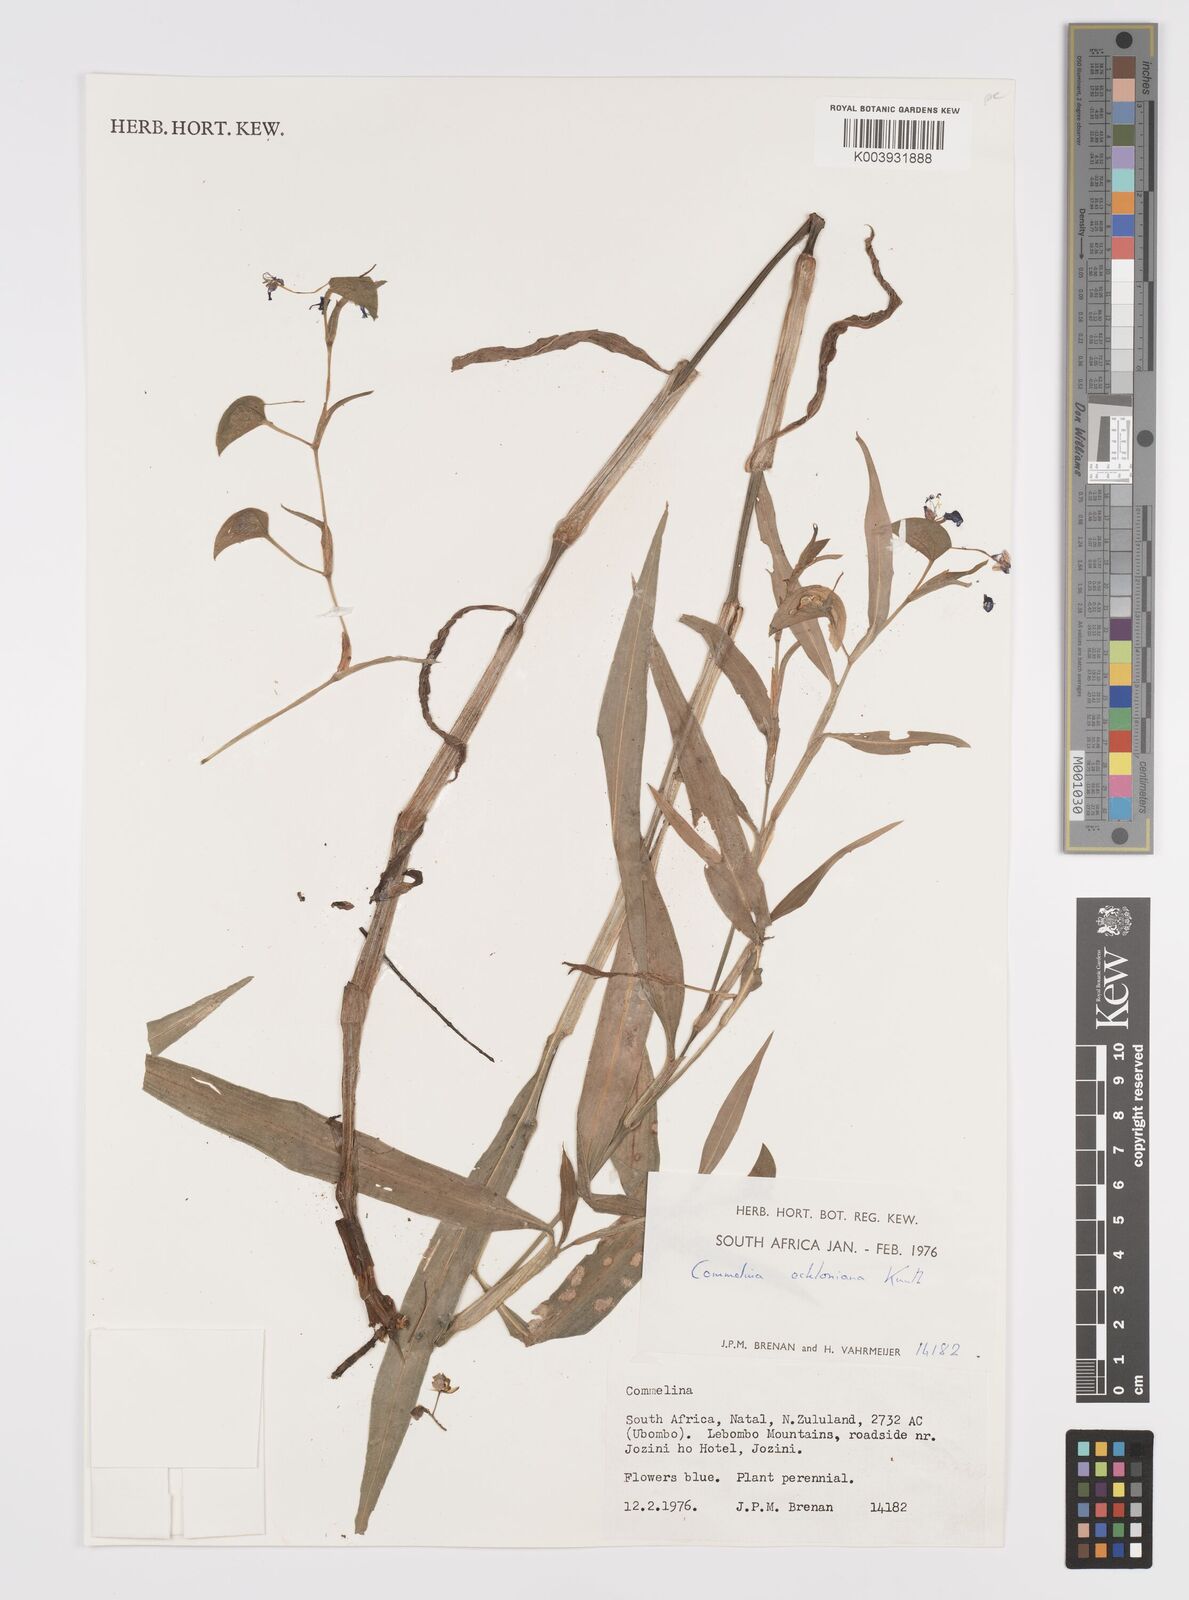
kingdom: Plantae
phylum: Tracheophyta
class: Liliopsida
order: Commelinales
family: Commelinaceae
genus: Commelina
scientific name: Commelina eckloniana
